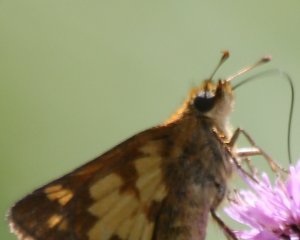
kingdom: Animalia
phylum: Arthropoda
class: Insecta
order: Lepidoptera
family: Hesperiidae
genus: Polites
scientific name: Polites coras
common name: Peck's Skipper
